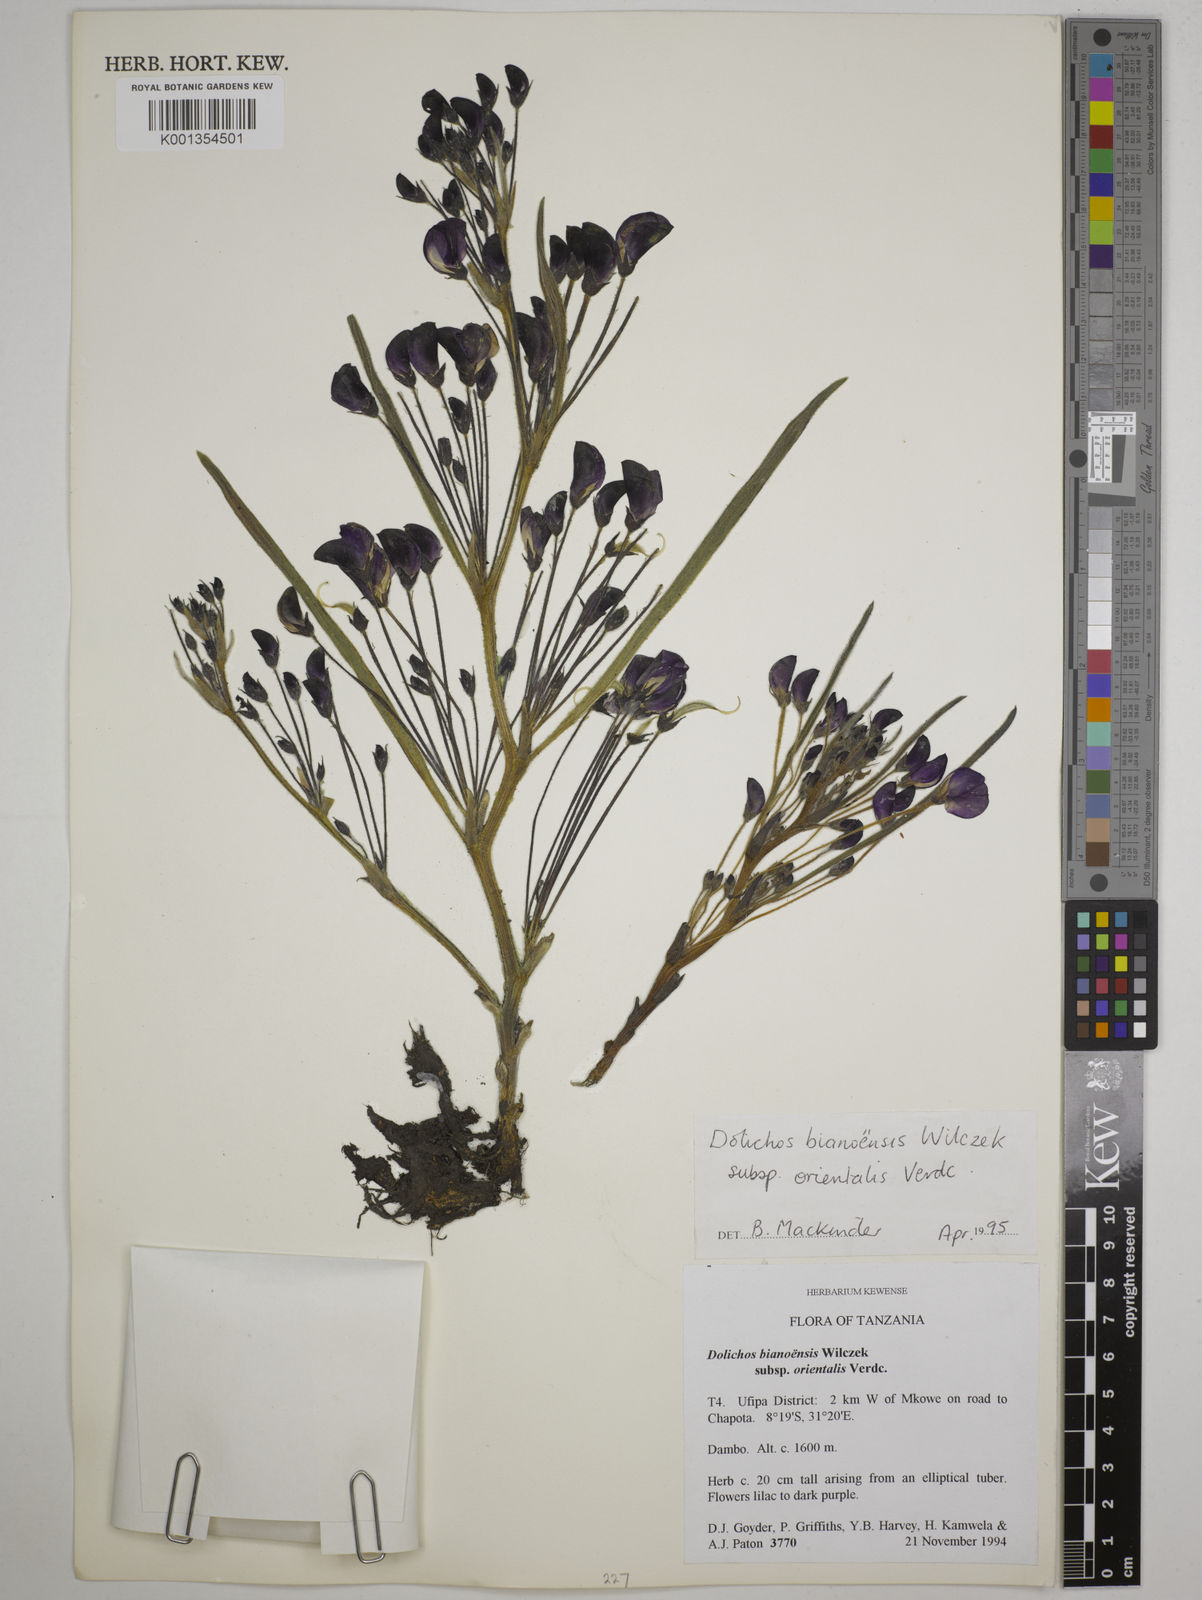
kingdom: Plantae
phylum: Tracheophyta
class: Magnoliopsida
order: Fabales
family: Fabaceae
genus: Dolichos
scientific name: Dolichos
